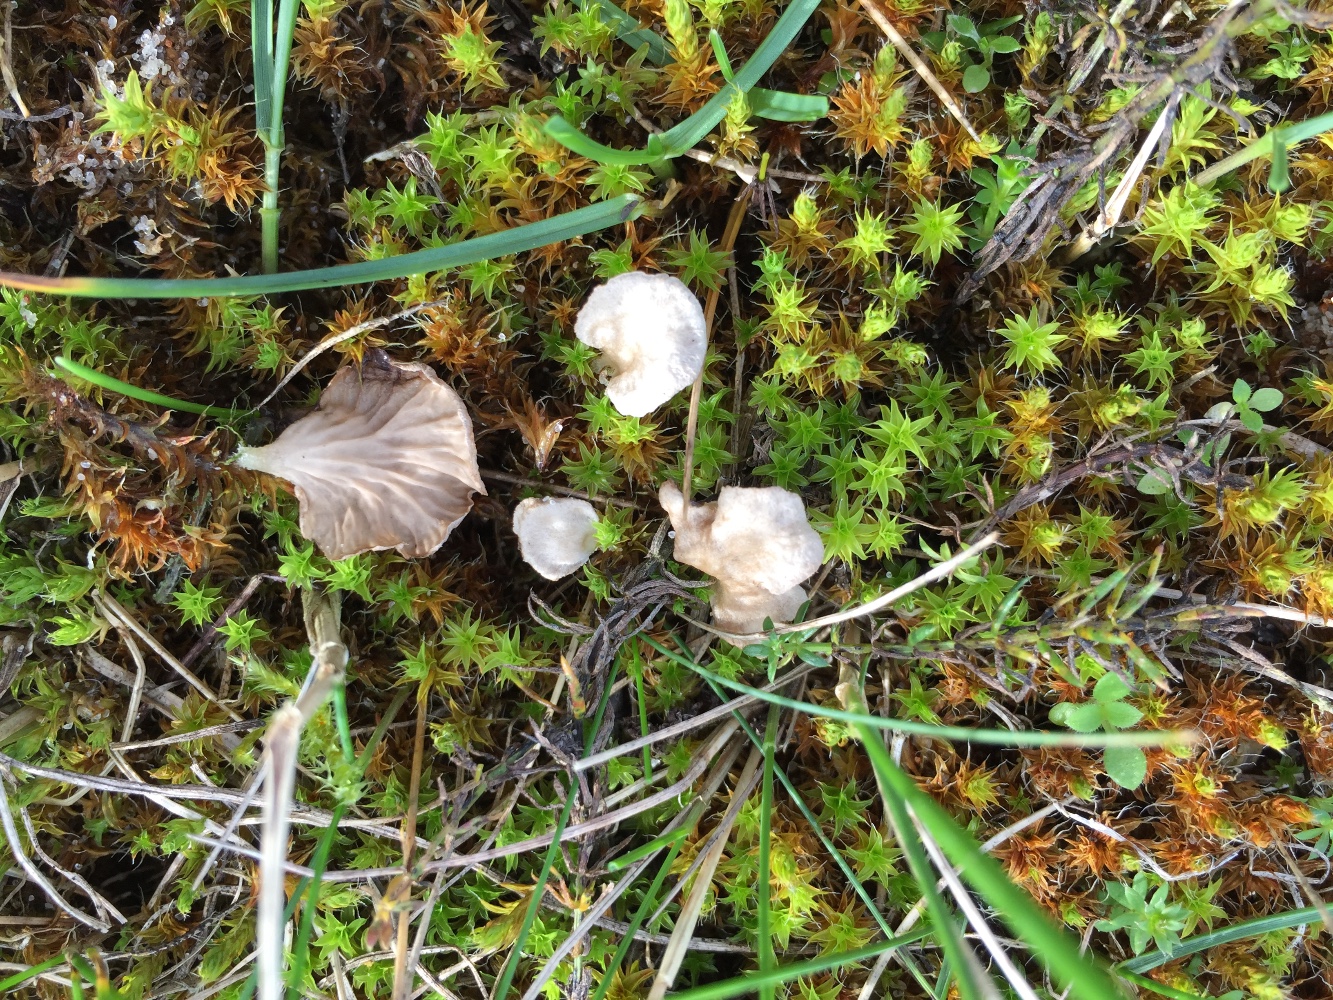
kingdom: Fungi
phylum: Basidiomycota
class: Agaricomycetes
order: Agaricales
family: Hygrophoraceae
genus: Arrhenia
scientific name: Arrhenia spathulata
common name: skæv fontænehat
